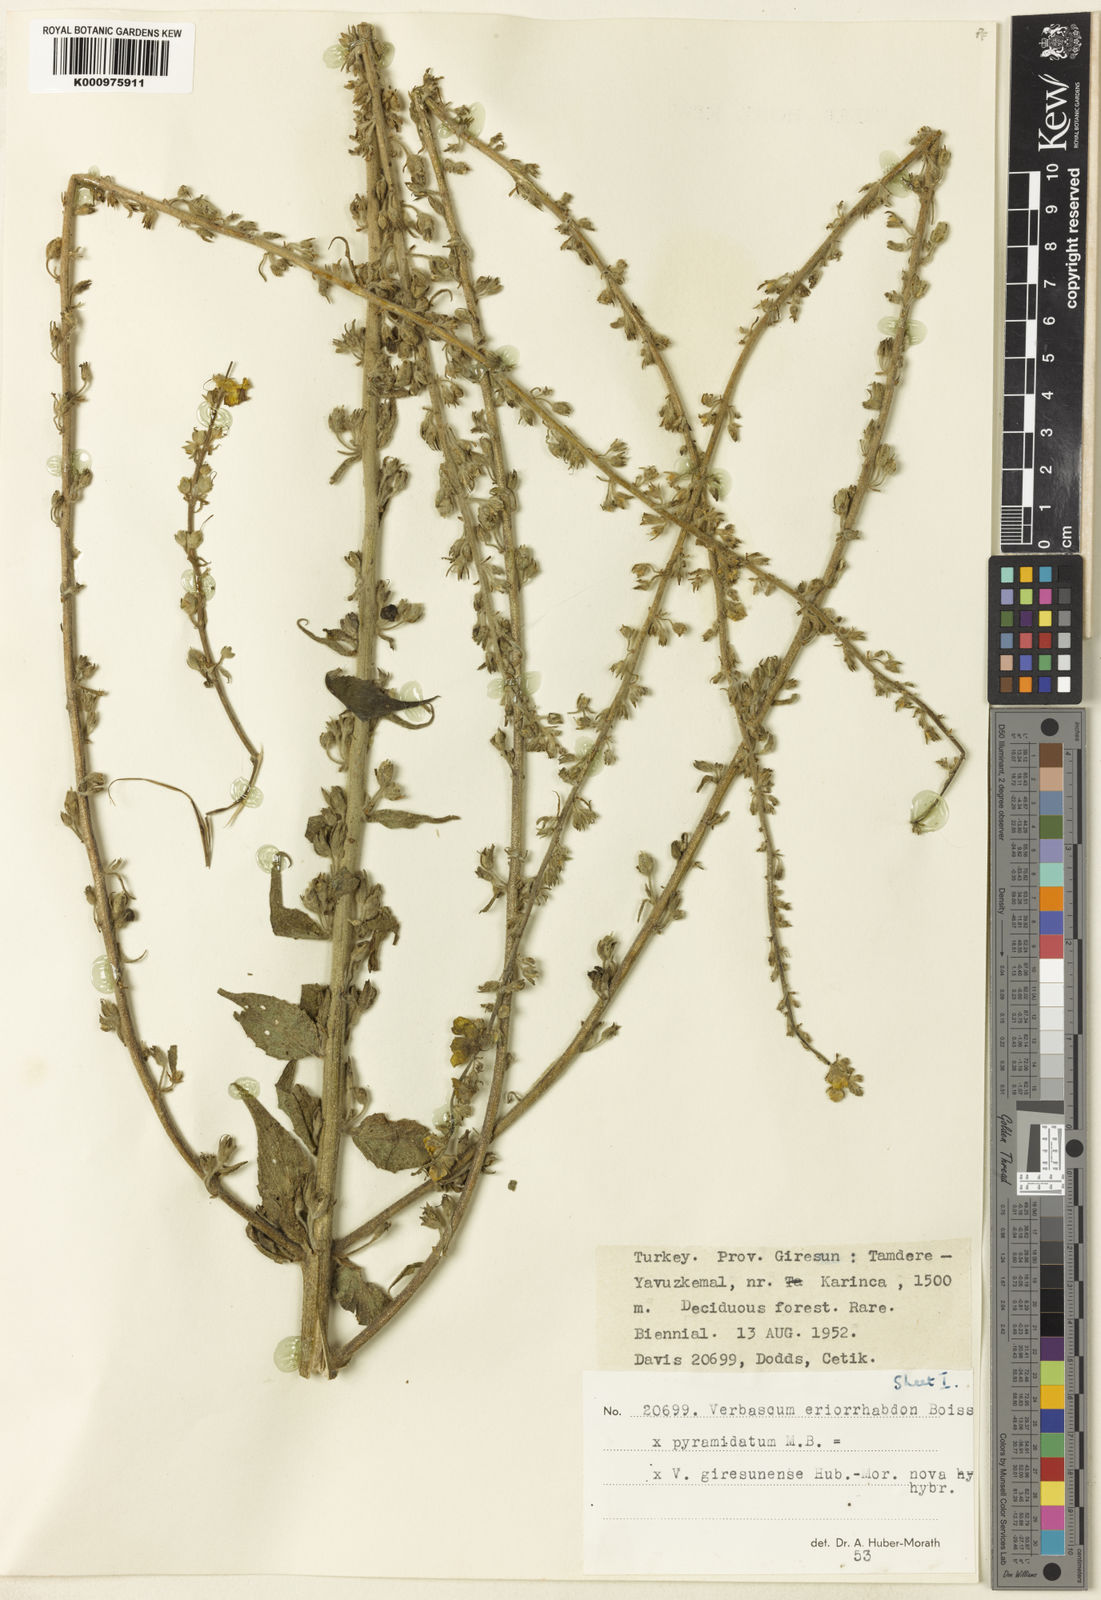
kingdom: Plantae
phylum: Tracheophyta
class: Magnoliopsida
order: Lamiales
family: Scrophulariaceae
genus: Verbascum
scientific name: Verbascum giresunense
